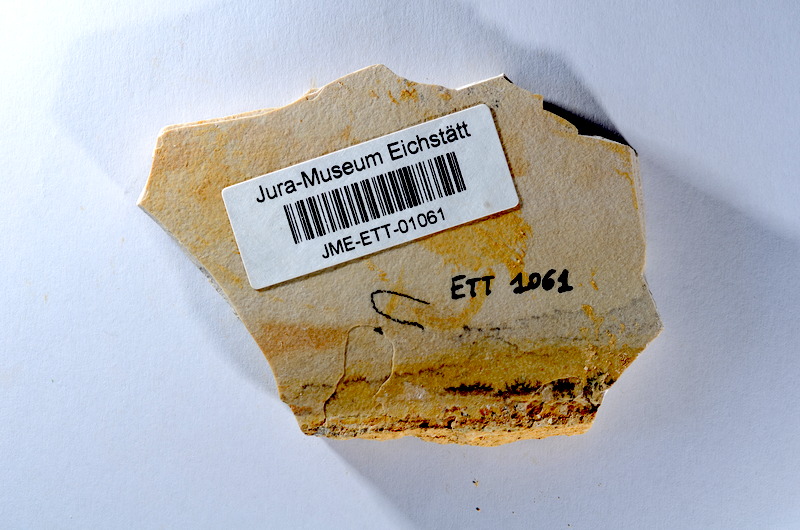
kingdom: Animalia
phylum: Chordata
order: Salmoniformes
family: Orthogonikleithridae
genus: Orthogonikleithrus
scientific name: Orthogonikleithrus hoelli
